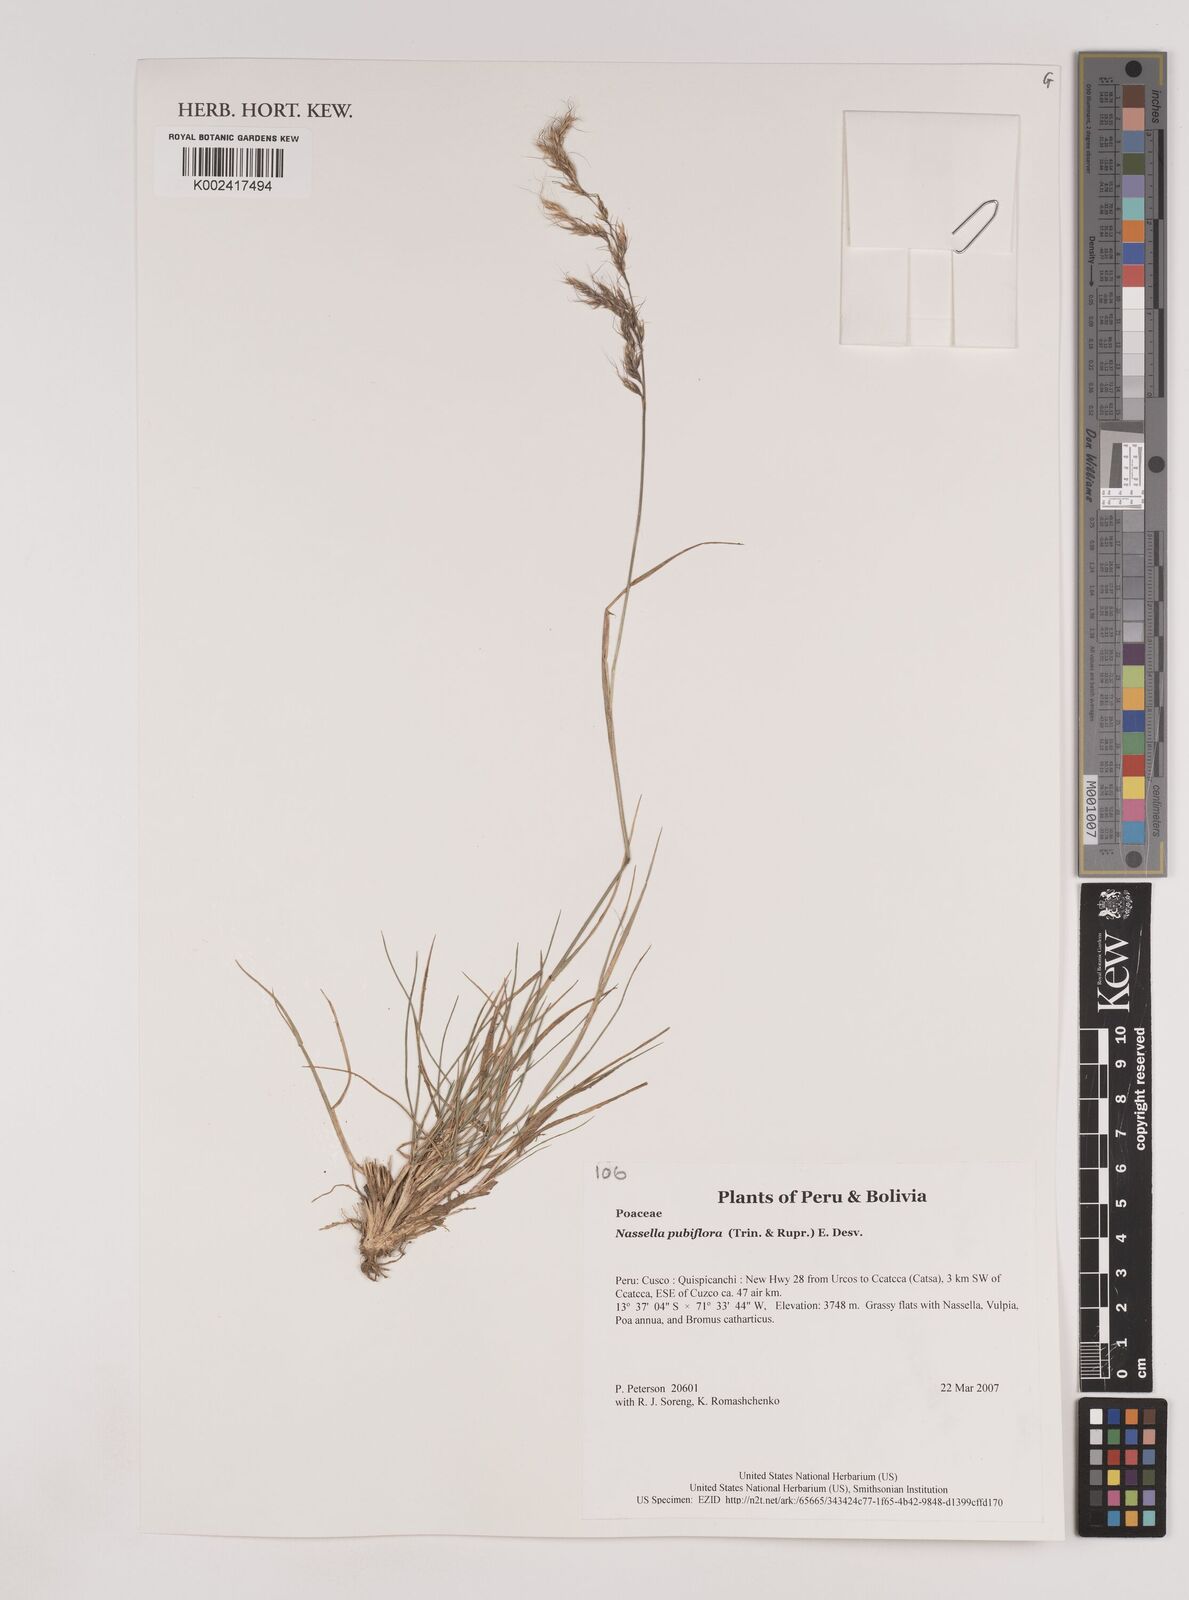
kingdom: Plantae
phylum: Tracheophyta
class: Liliopsida
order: Poales
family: Poaceae
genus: Nassella
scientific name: Nassella pubiflora
